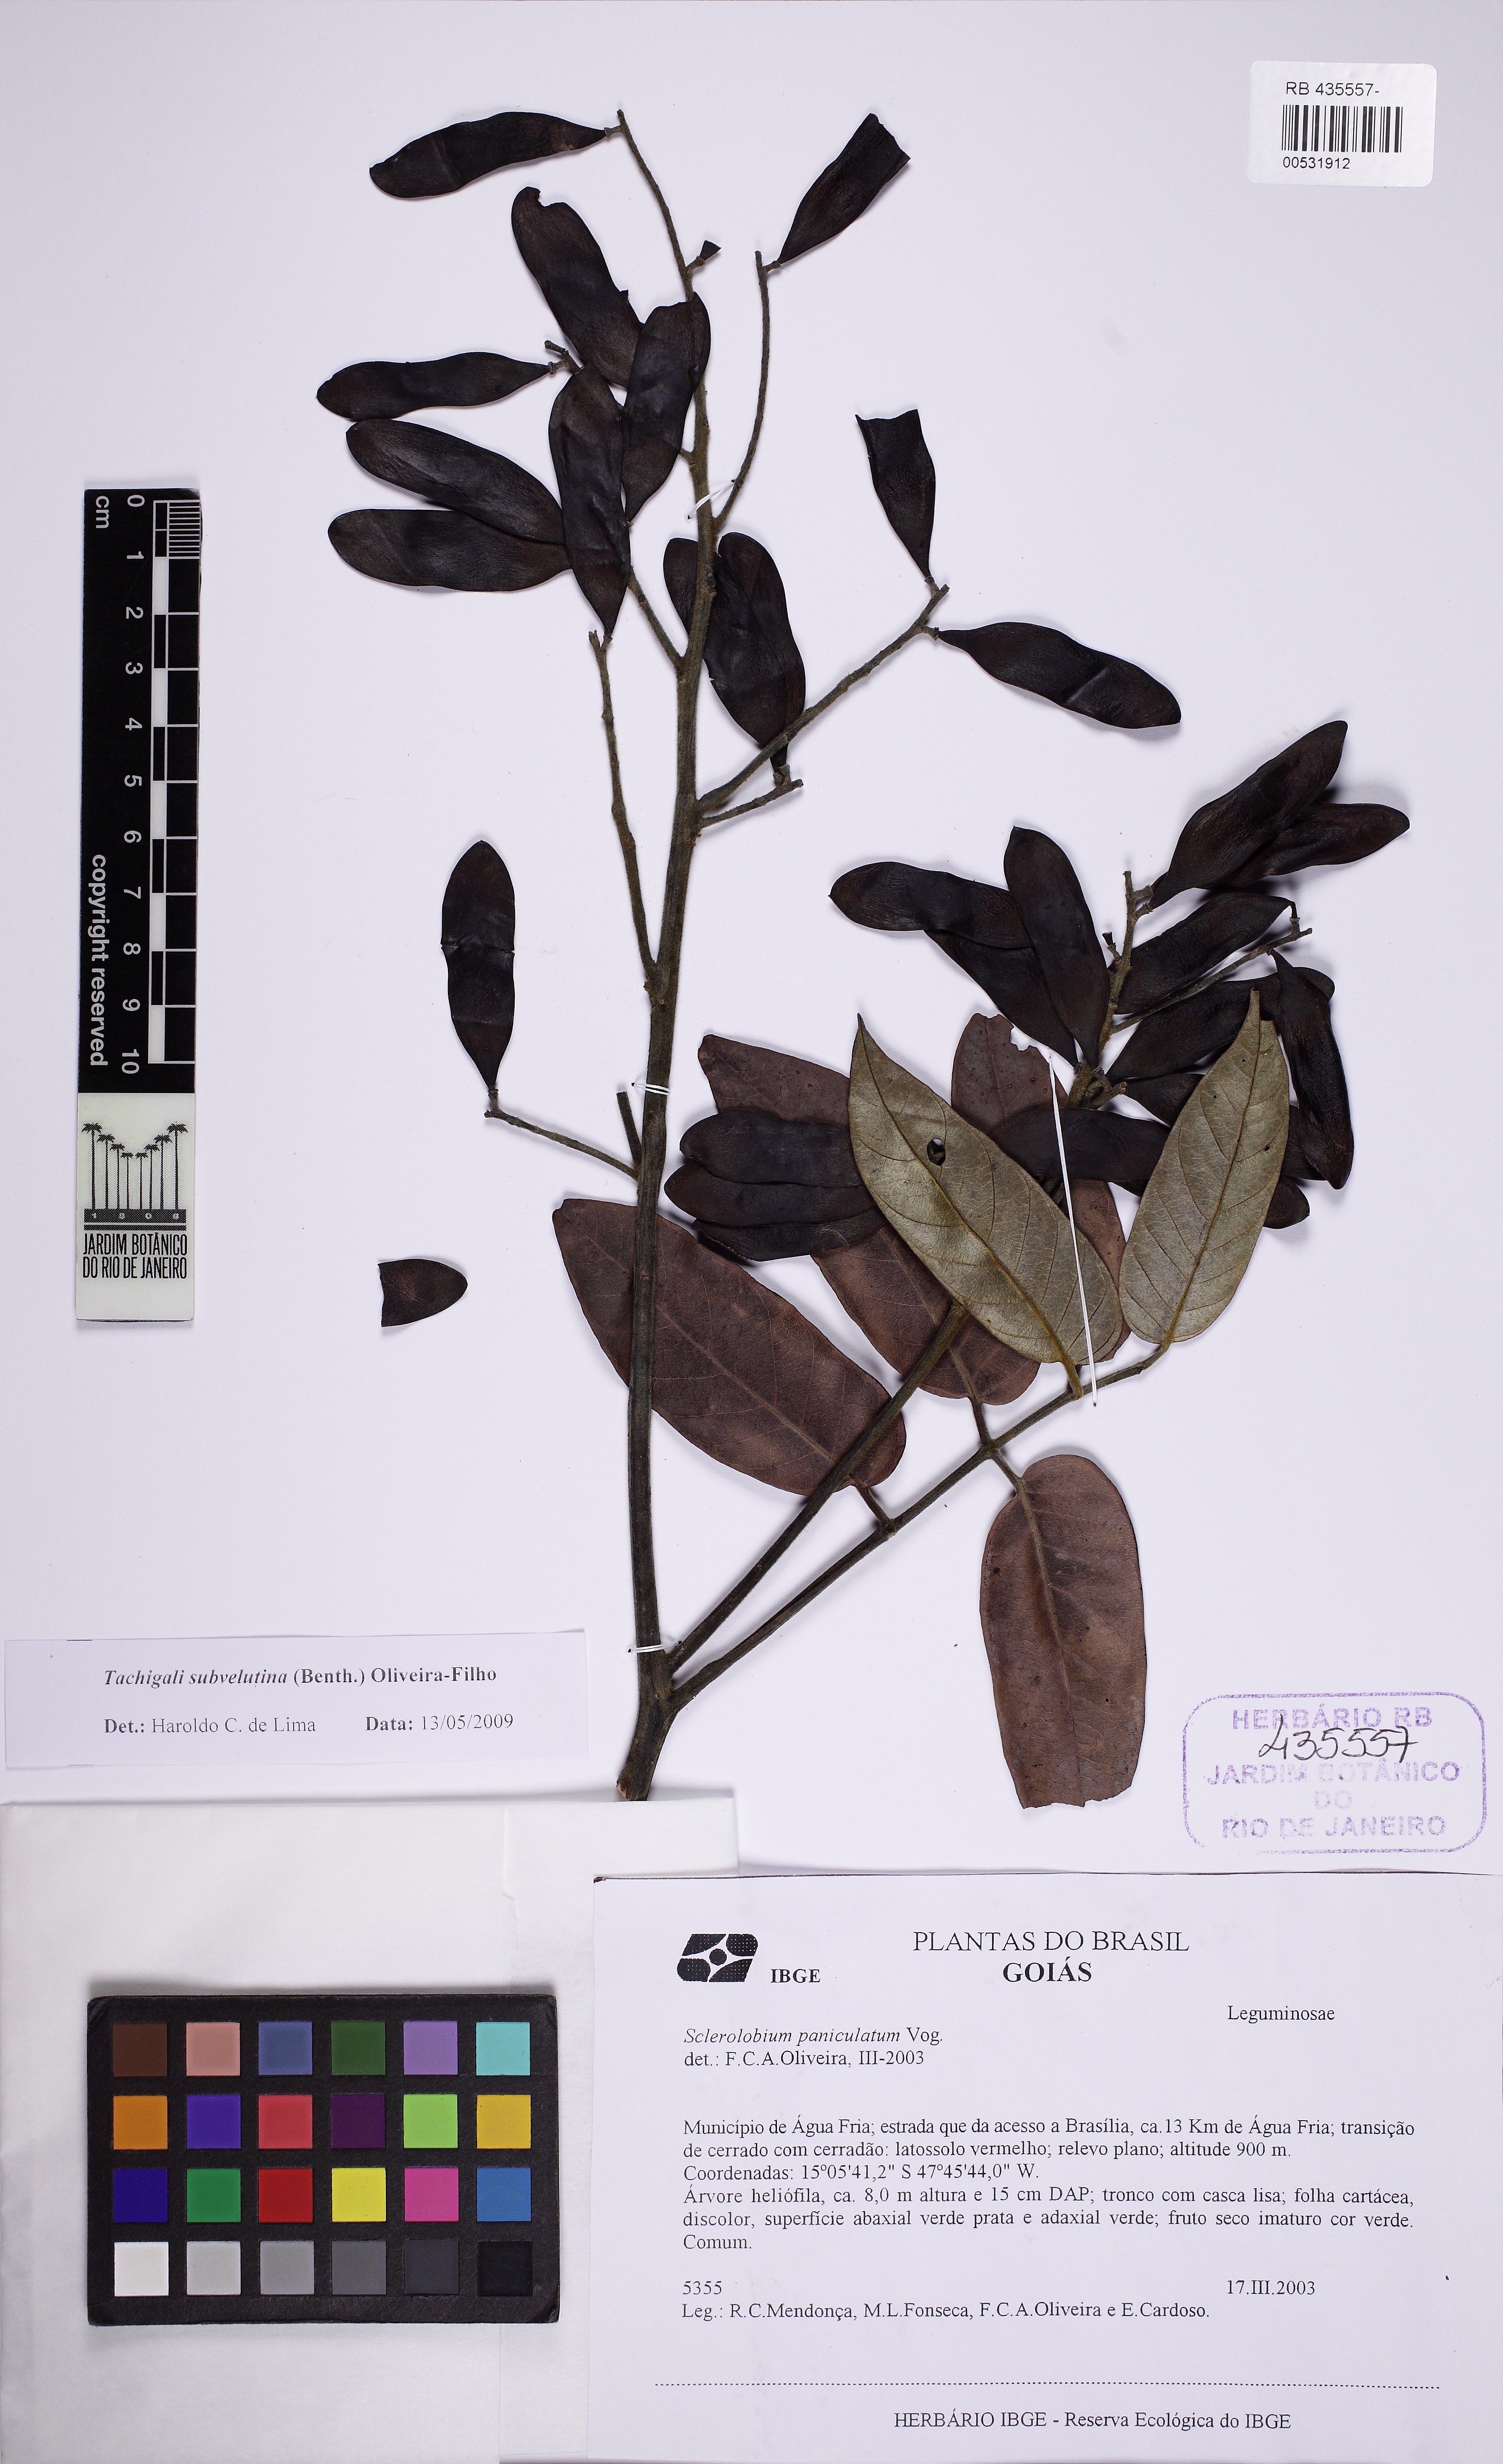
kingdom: Plantae
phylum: Tracheophyta
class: Magnoliopsida
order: Fabales
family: Fabaceae
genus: Tachigali
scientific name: Tachigali subvelutina
